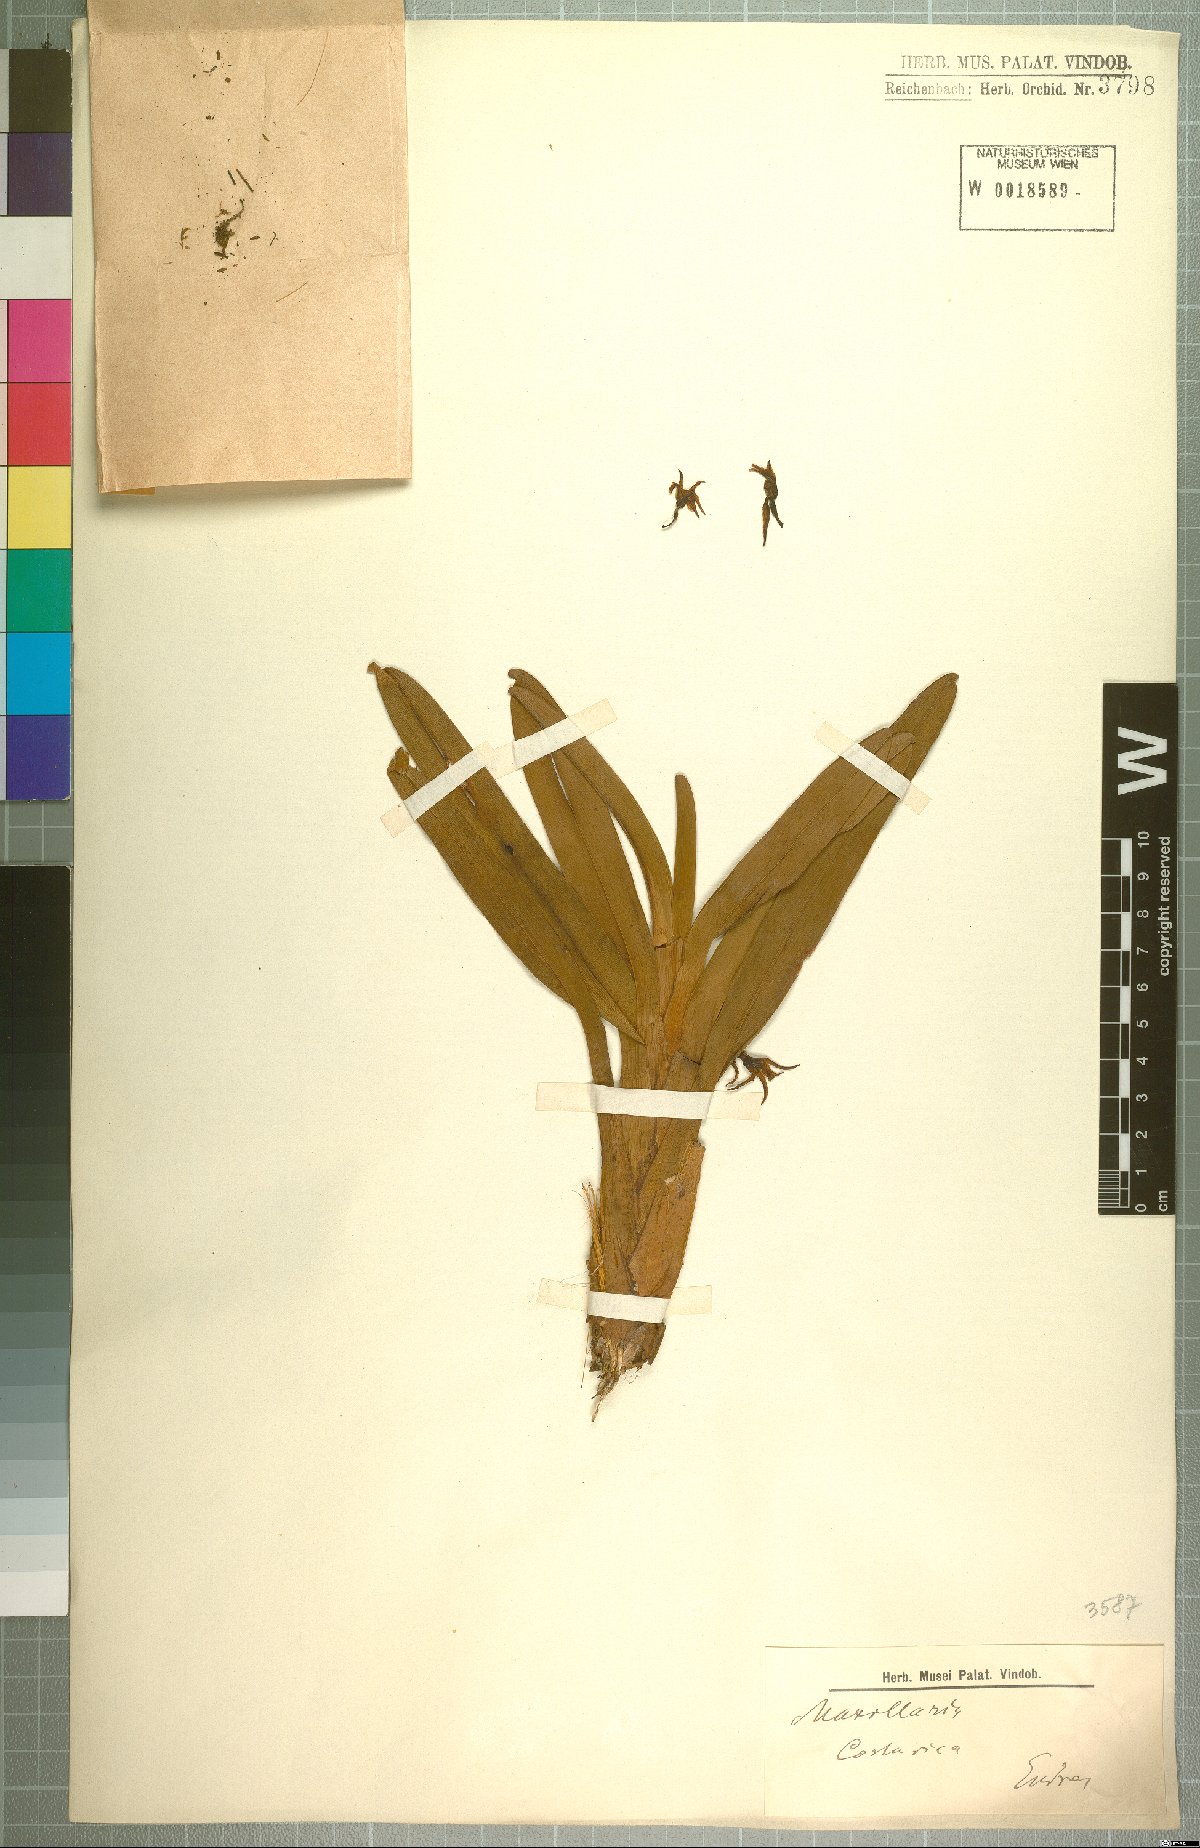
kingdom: Plantae
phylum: Tracheophyta
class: Liliopsida
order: Asparagales
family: Orchidaceae
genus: Maxillaria
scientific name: Maxillaria
